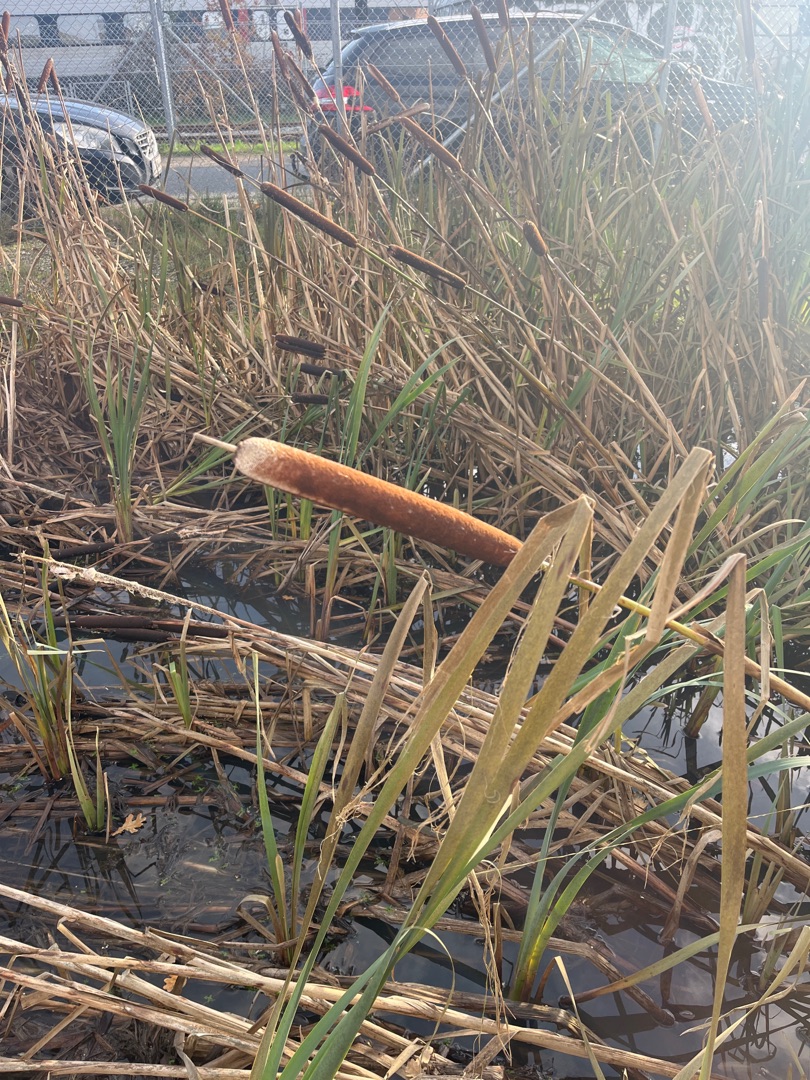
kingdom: Plantae
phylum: Tracheophyta
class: Liliopsida
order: Poales
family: Typhaceae
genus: Typha
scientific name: Typha latifolia
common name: Bredbladet dunhammer
